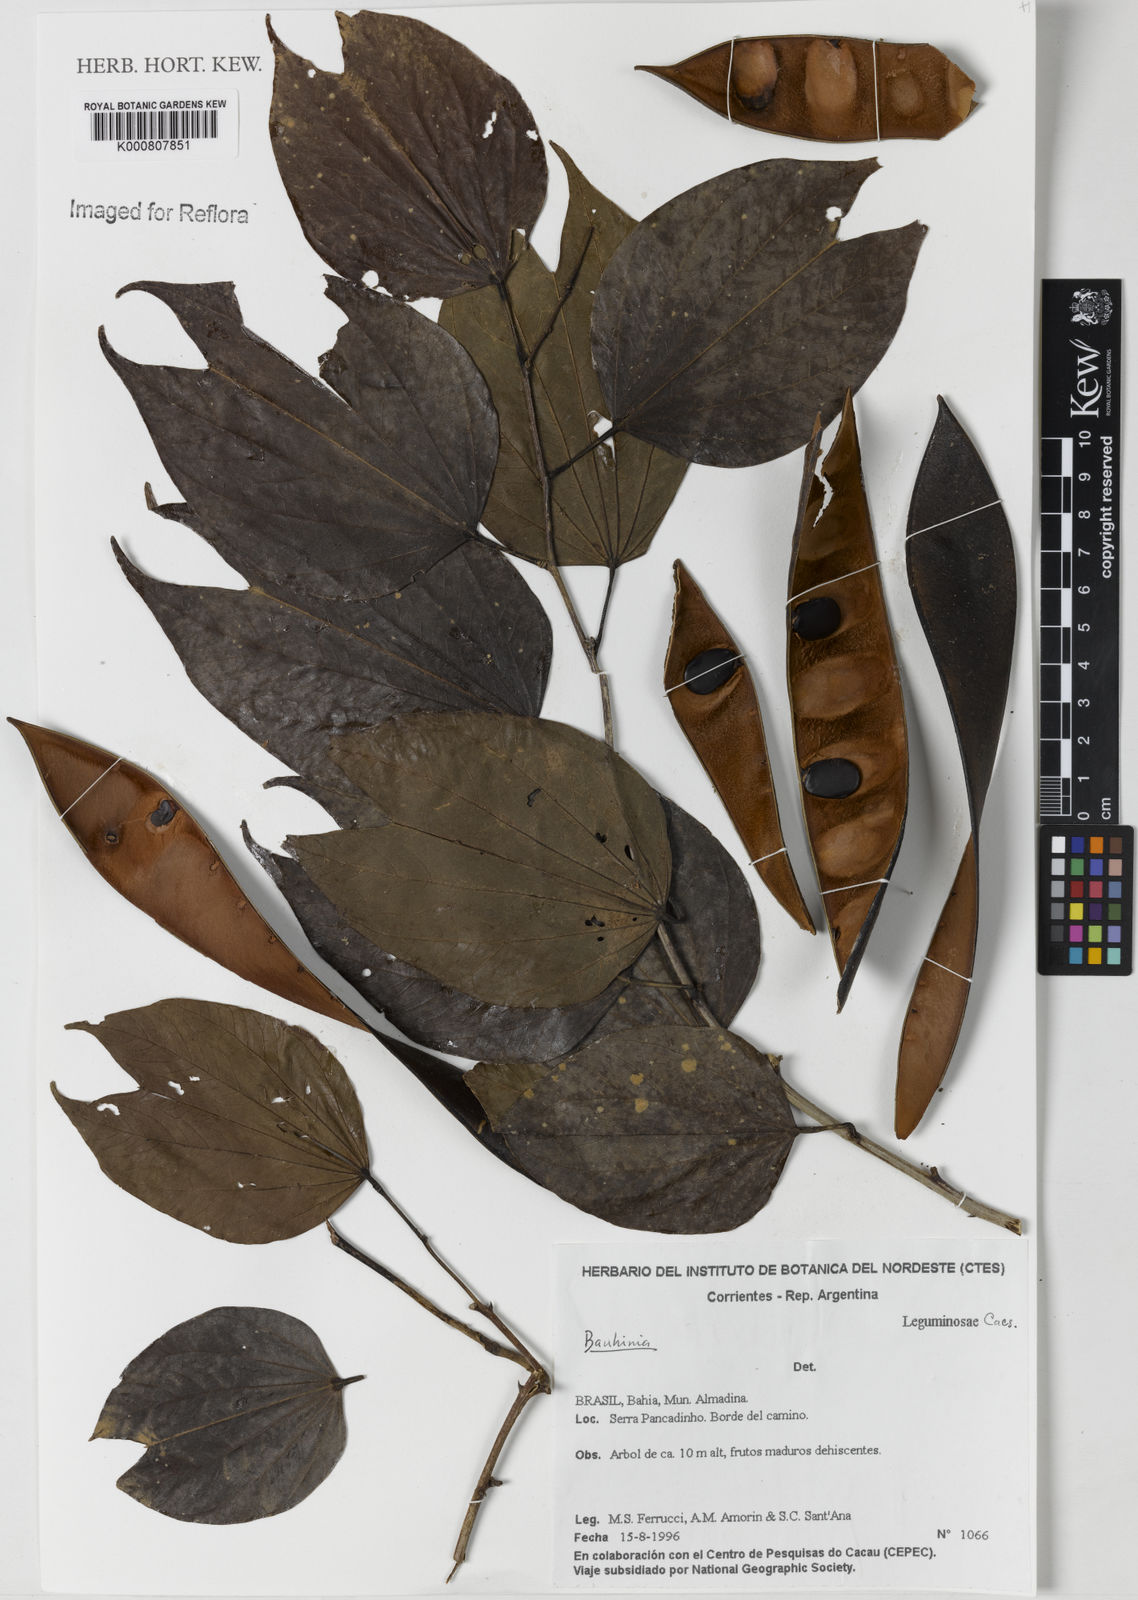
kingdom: Plantae
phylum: Tracheophyta
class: Magnoliopsida
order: Fabales
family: Fabaceae
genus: Bauhinia
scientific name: Bauhinia
